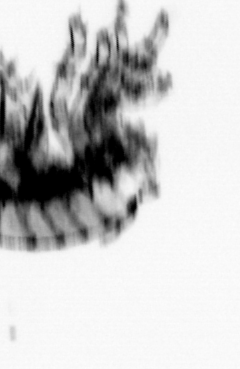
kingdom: Animalia
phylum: Annelida
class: Polychaeta
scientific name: Polychaeta
